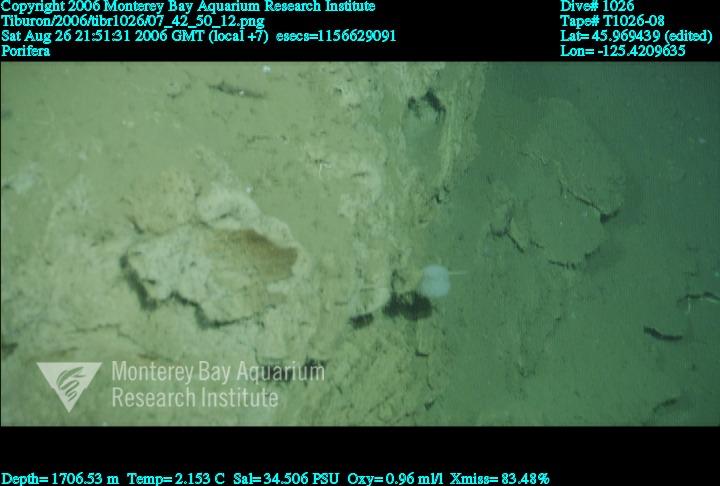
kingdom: Animalia
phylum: Porifera
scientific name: Porifera
